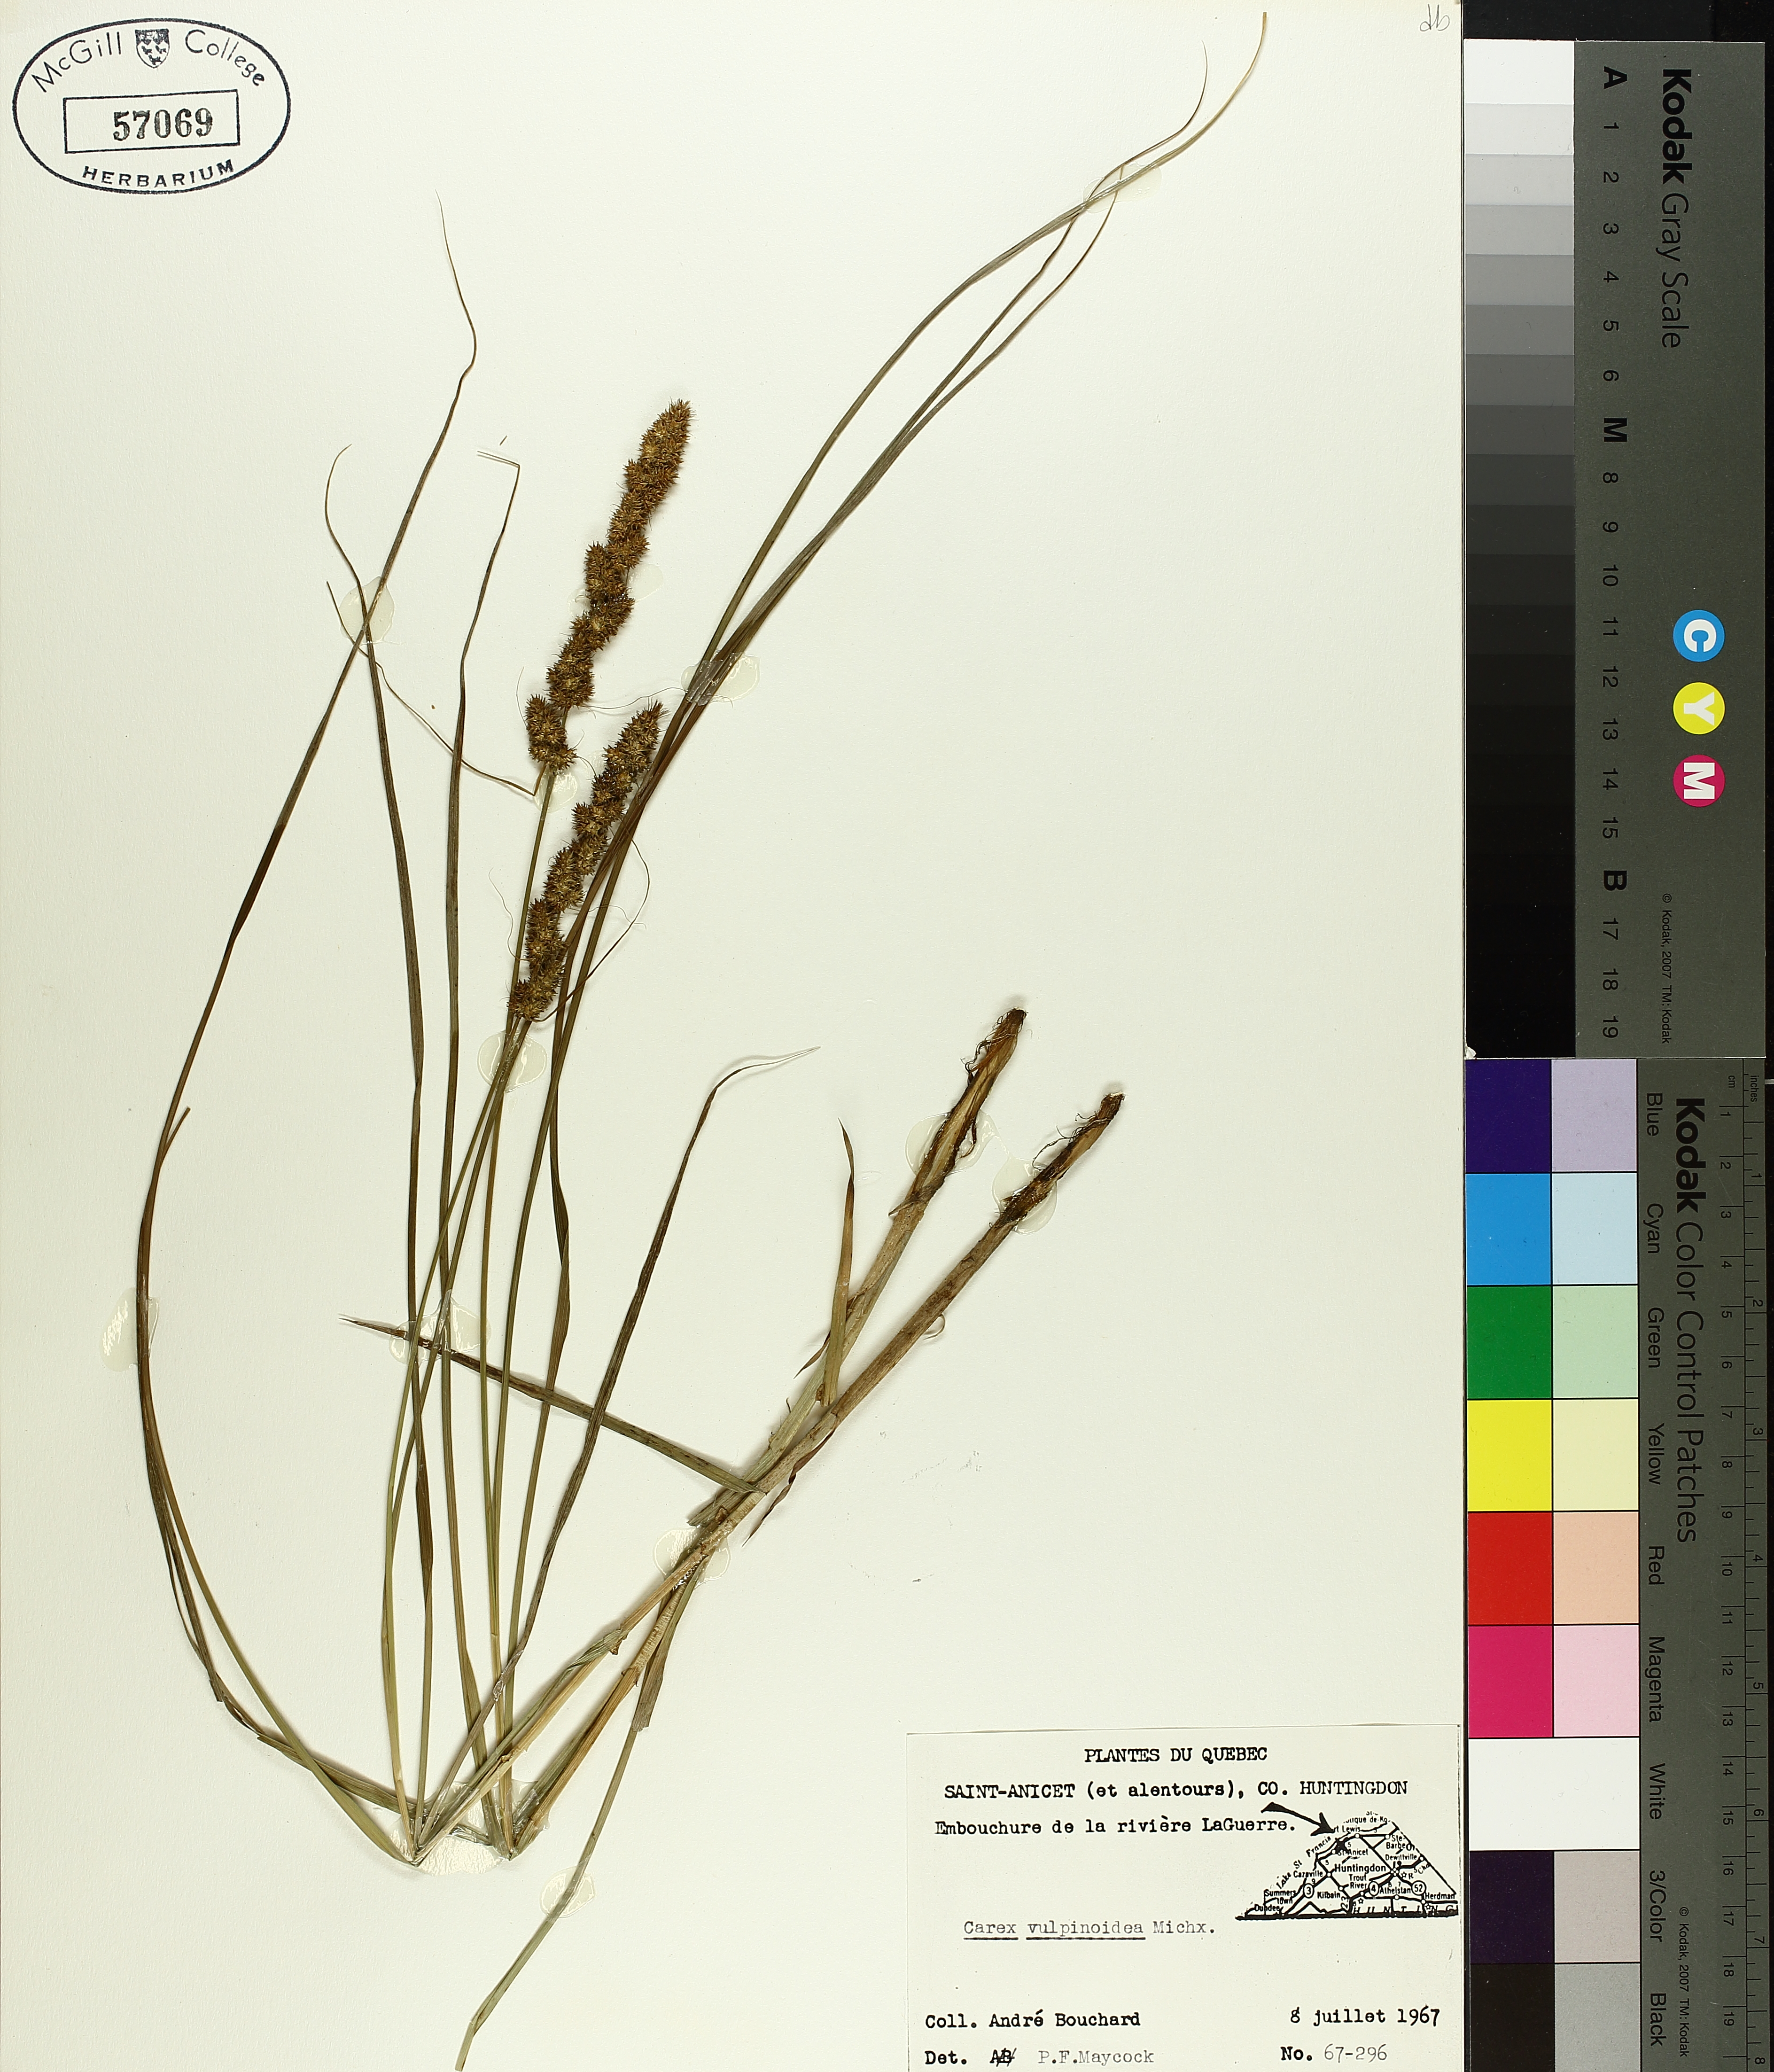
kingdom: Plantae
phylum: Tracheophyta
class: Liliopsida
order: Poales
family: Cyperaceae
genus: Carex
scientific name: Carex vulpinoidea
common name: American fox-sedge
